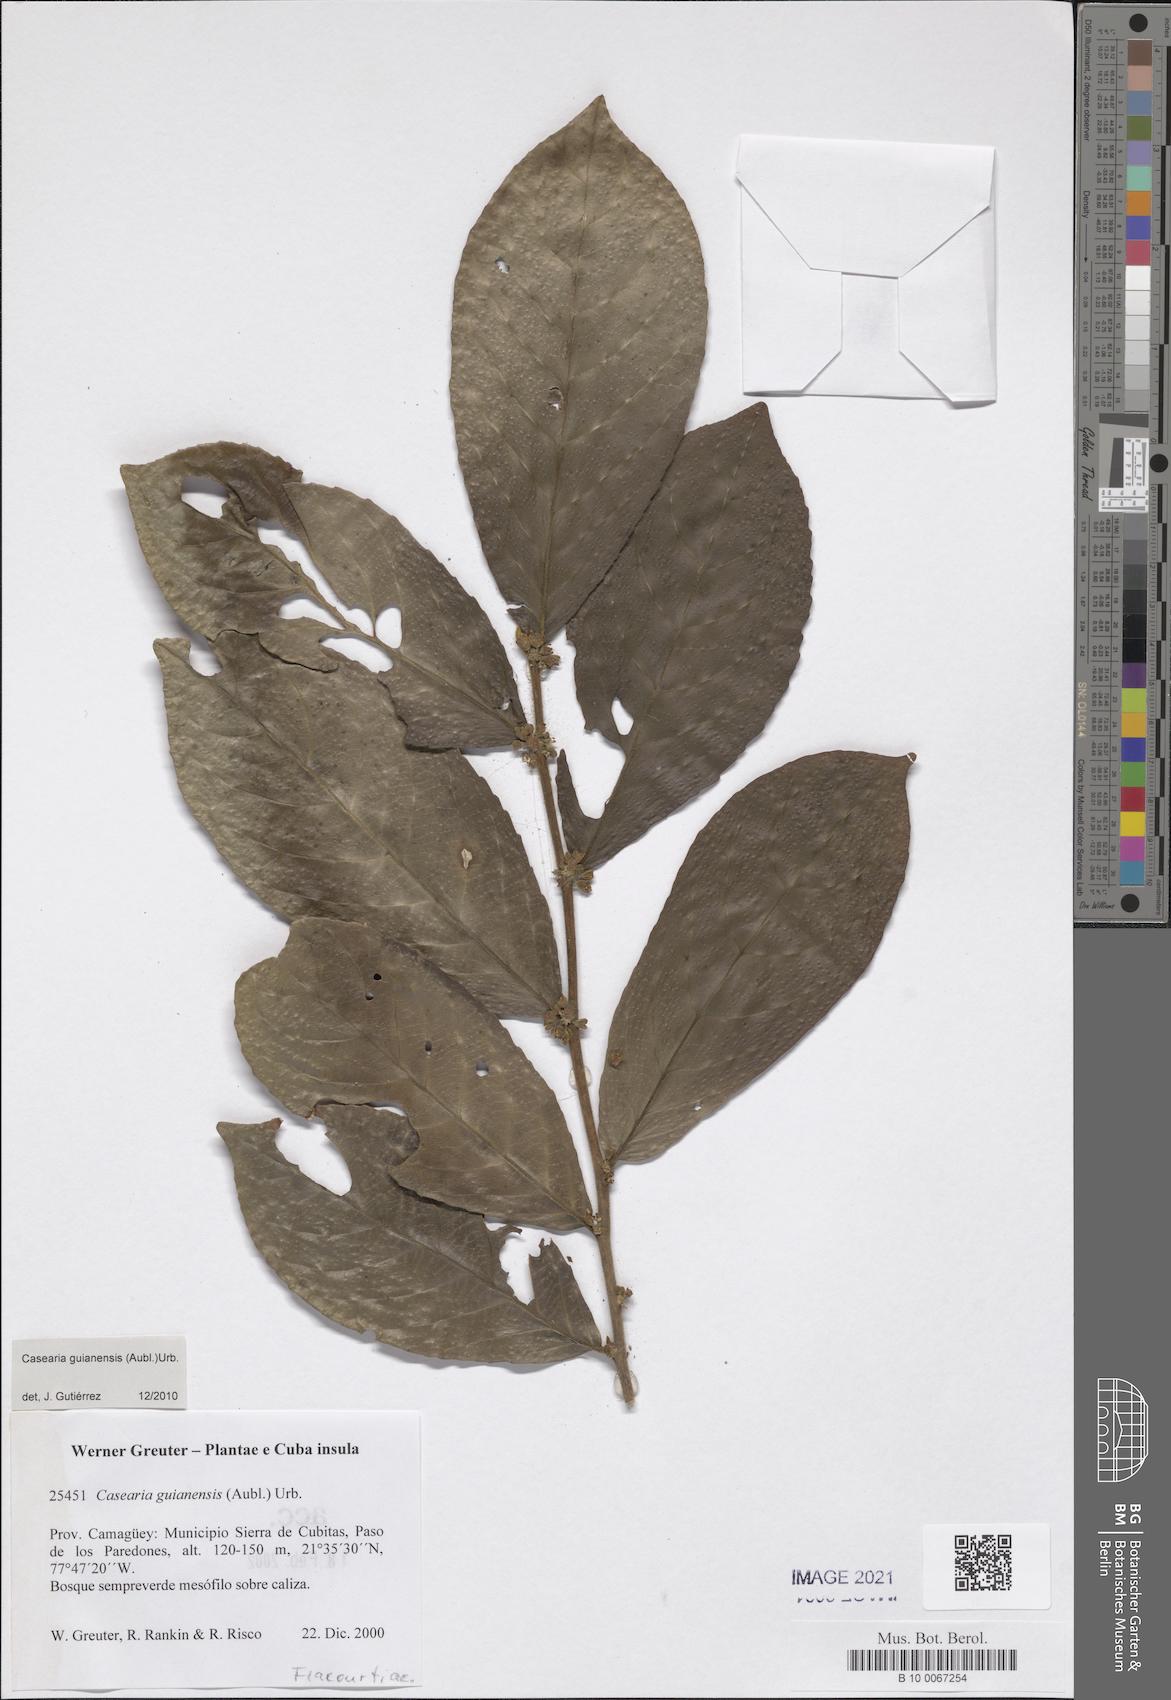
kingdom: Plantae
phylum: Tracheophyta
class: Magnoliopsida
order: Malpighiales
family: Salicaceae
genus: Casearia
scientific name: Casearia guianensis
